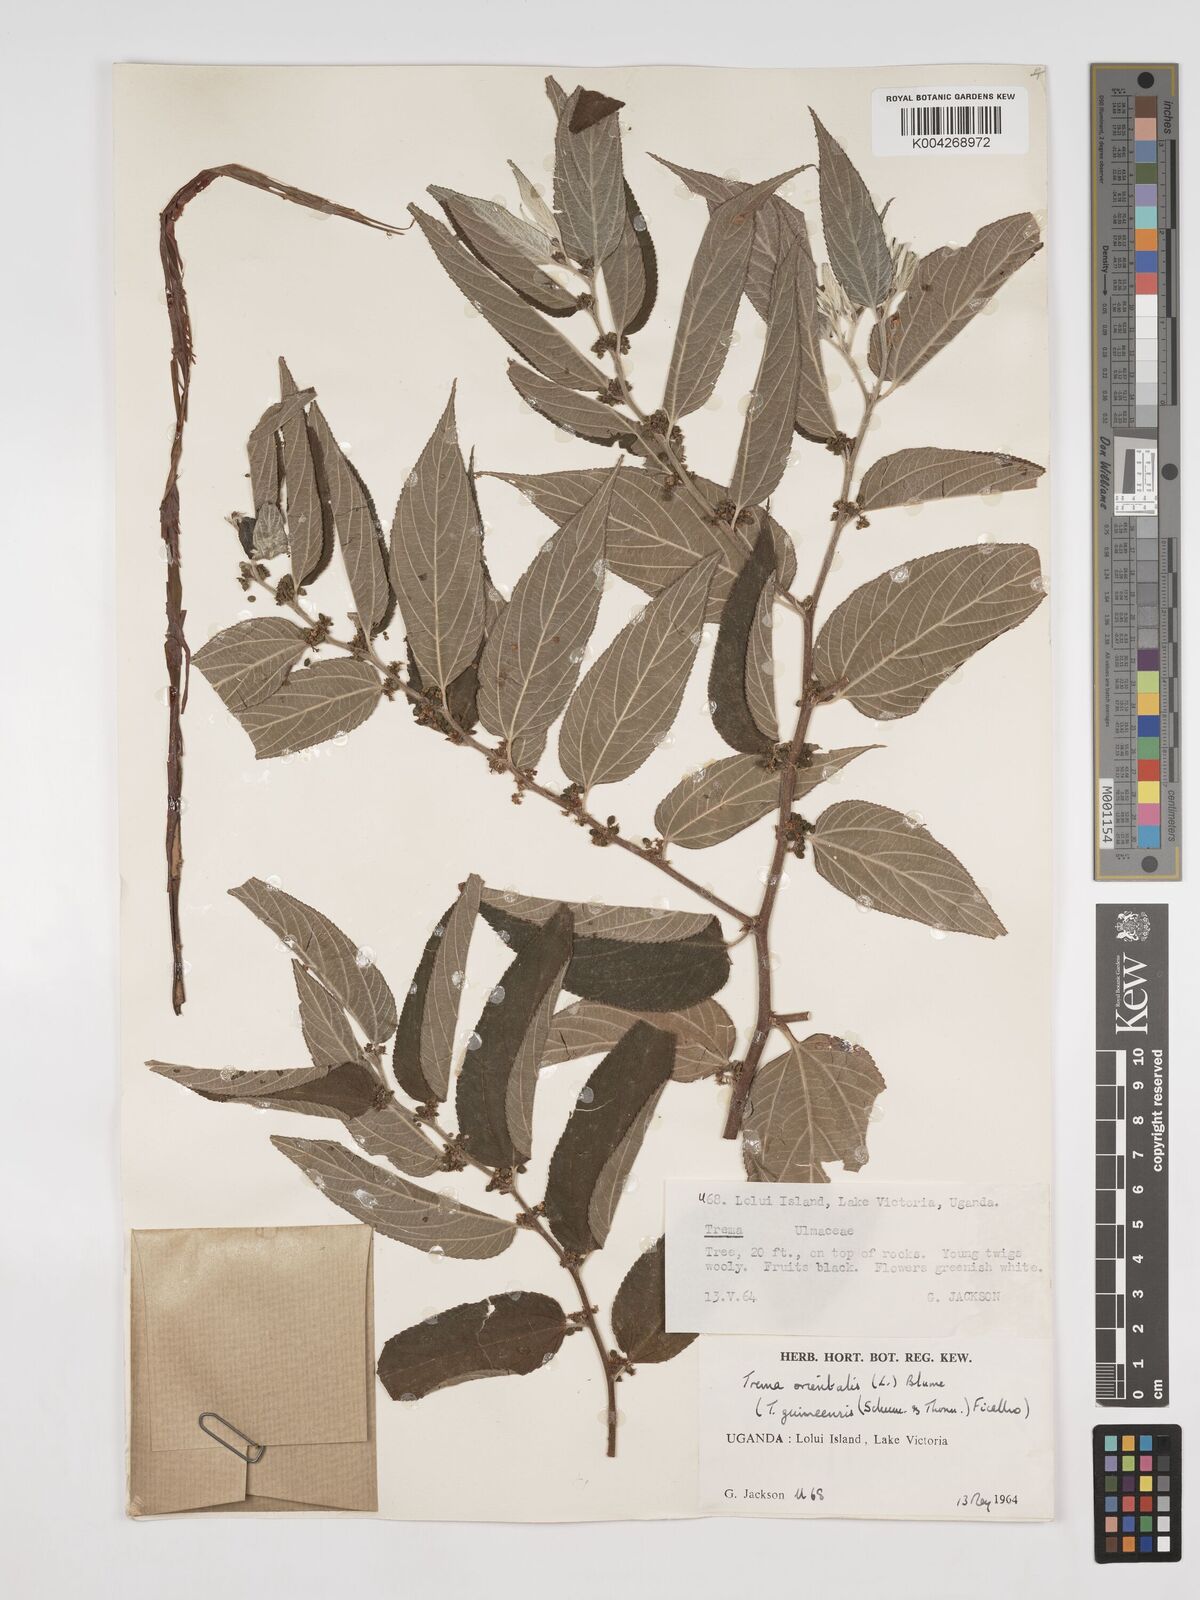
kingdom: Plantae
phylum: Tracheophyta
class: Magnoliopsida
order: Rosales
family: Cannabaceae
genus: Trema
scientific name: Trema orientale
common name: Indian charcoal tree
